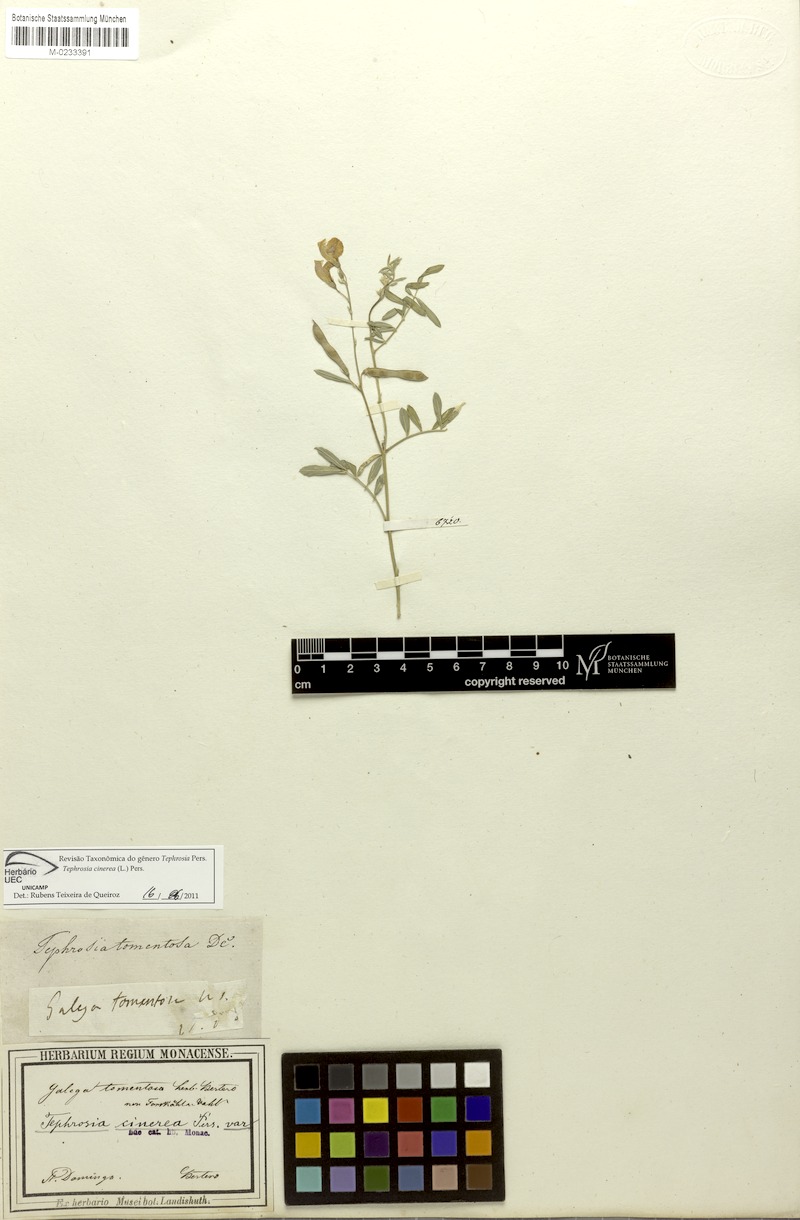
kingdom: Plantae
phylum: Tracheophyta
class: Magnoliopsida
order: Fabales
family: Fabaceae
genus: Tephrosia
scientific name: Tephrosia cinerea
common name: Ashen hoarypea
